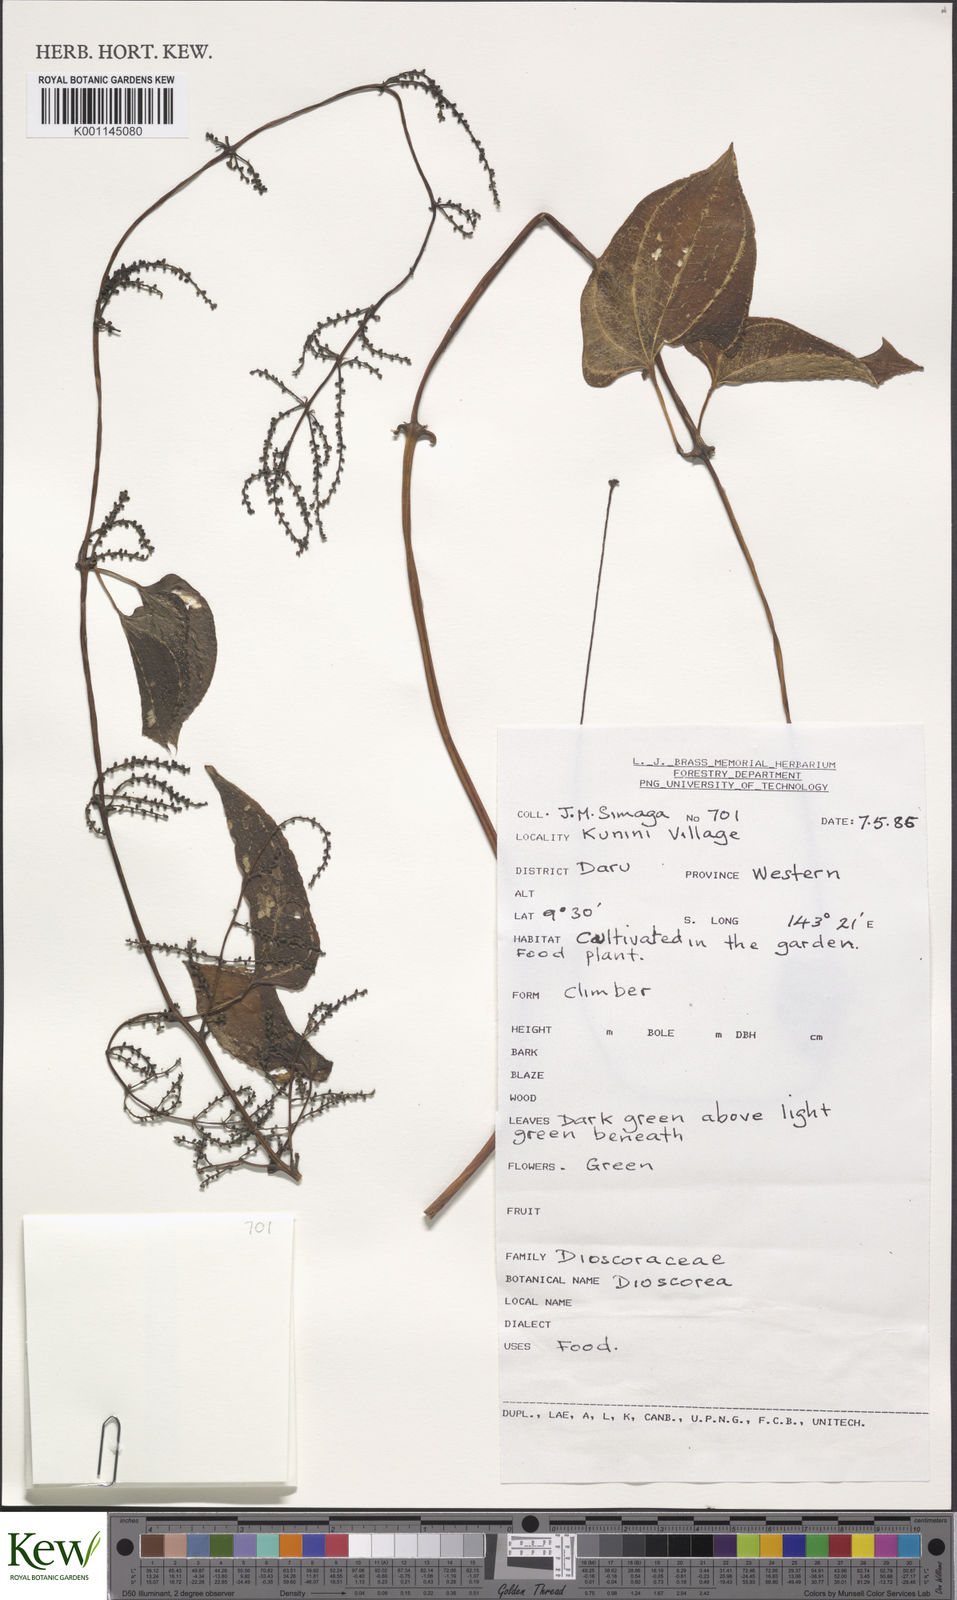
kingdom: Plantae
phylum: Tracheophyta
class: Liliopsida
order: Dioscoreales
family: Dioscoreaceae
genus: Dioscorea
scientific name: Dioscorea
